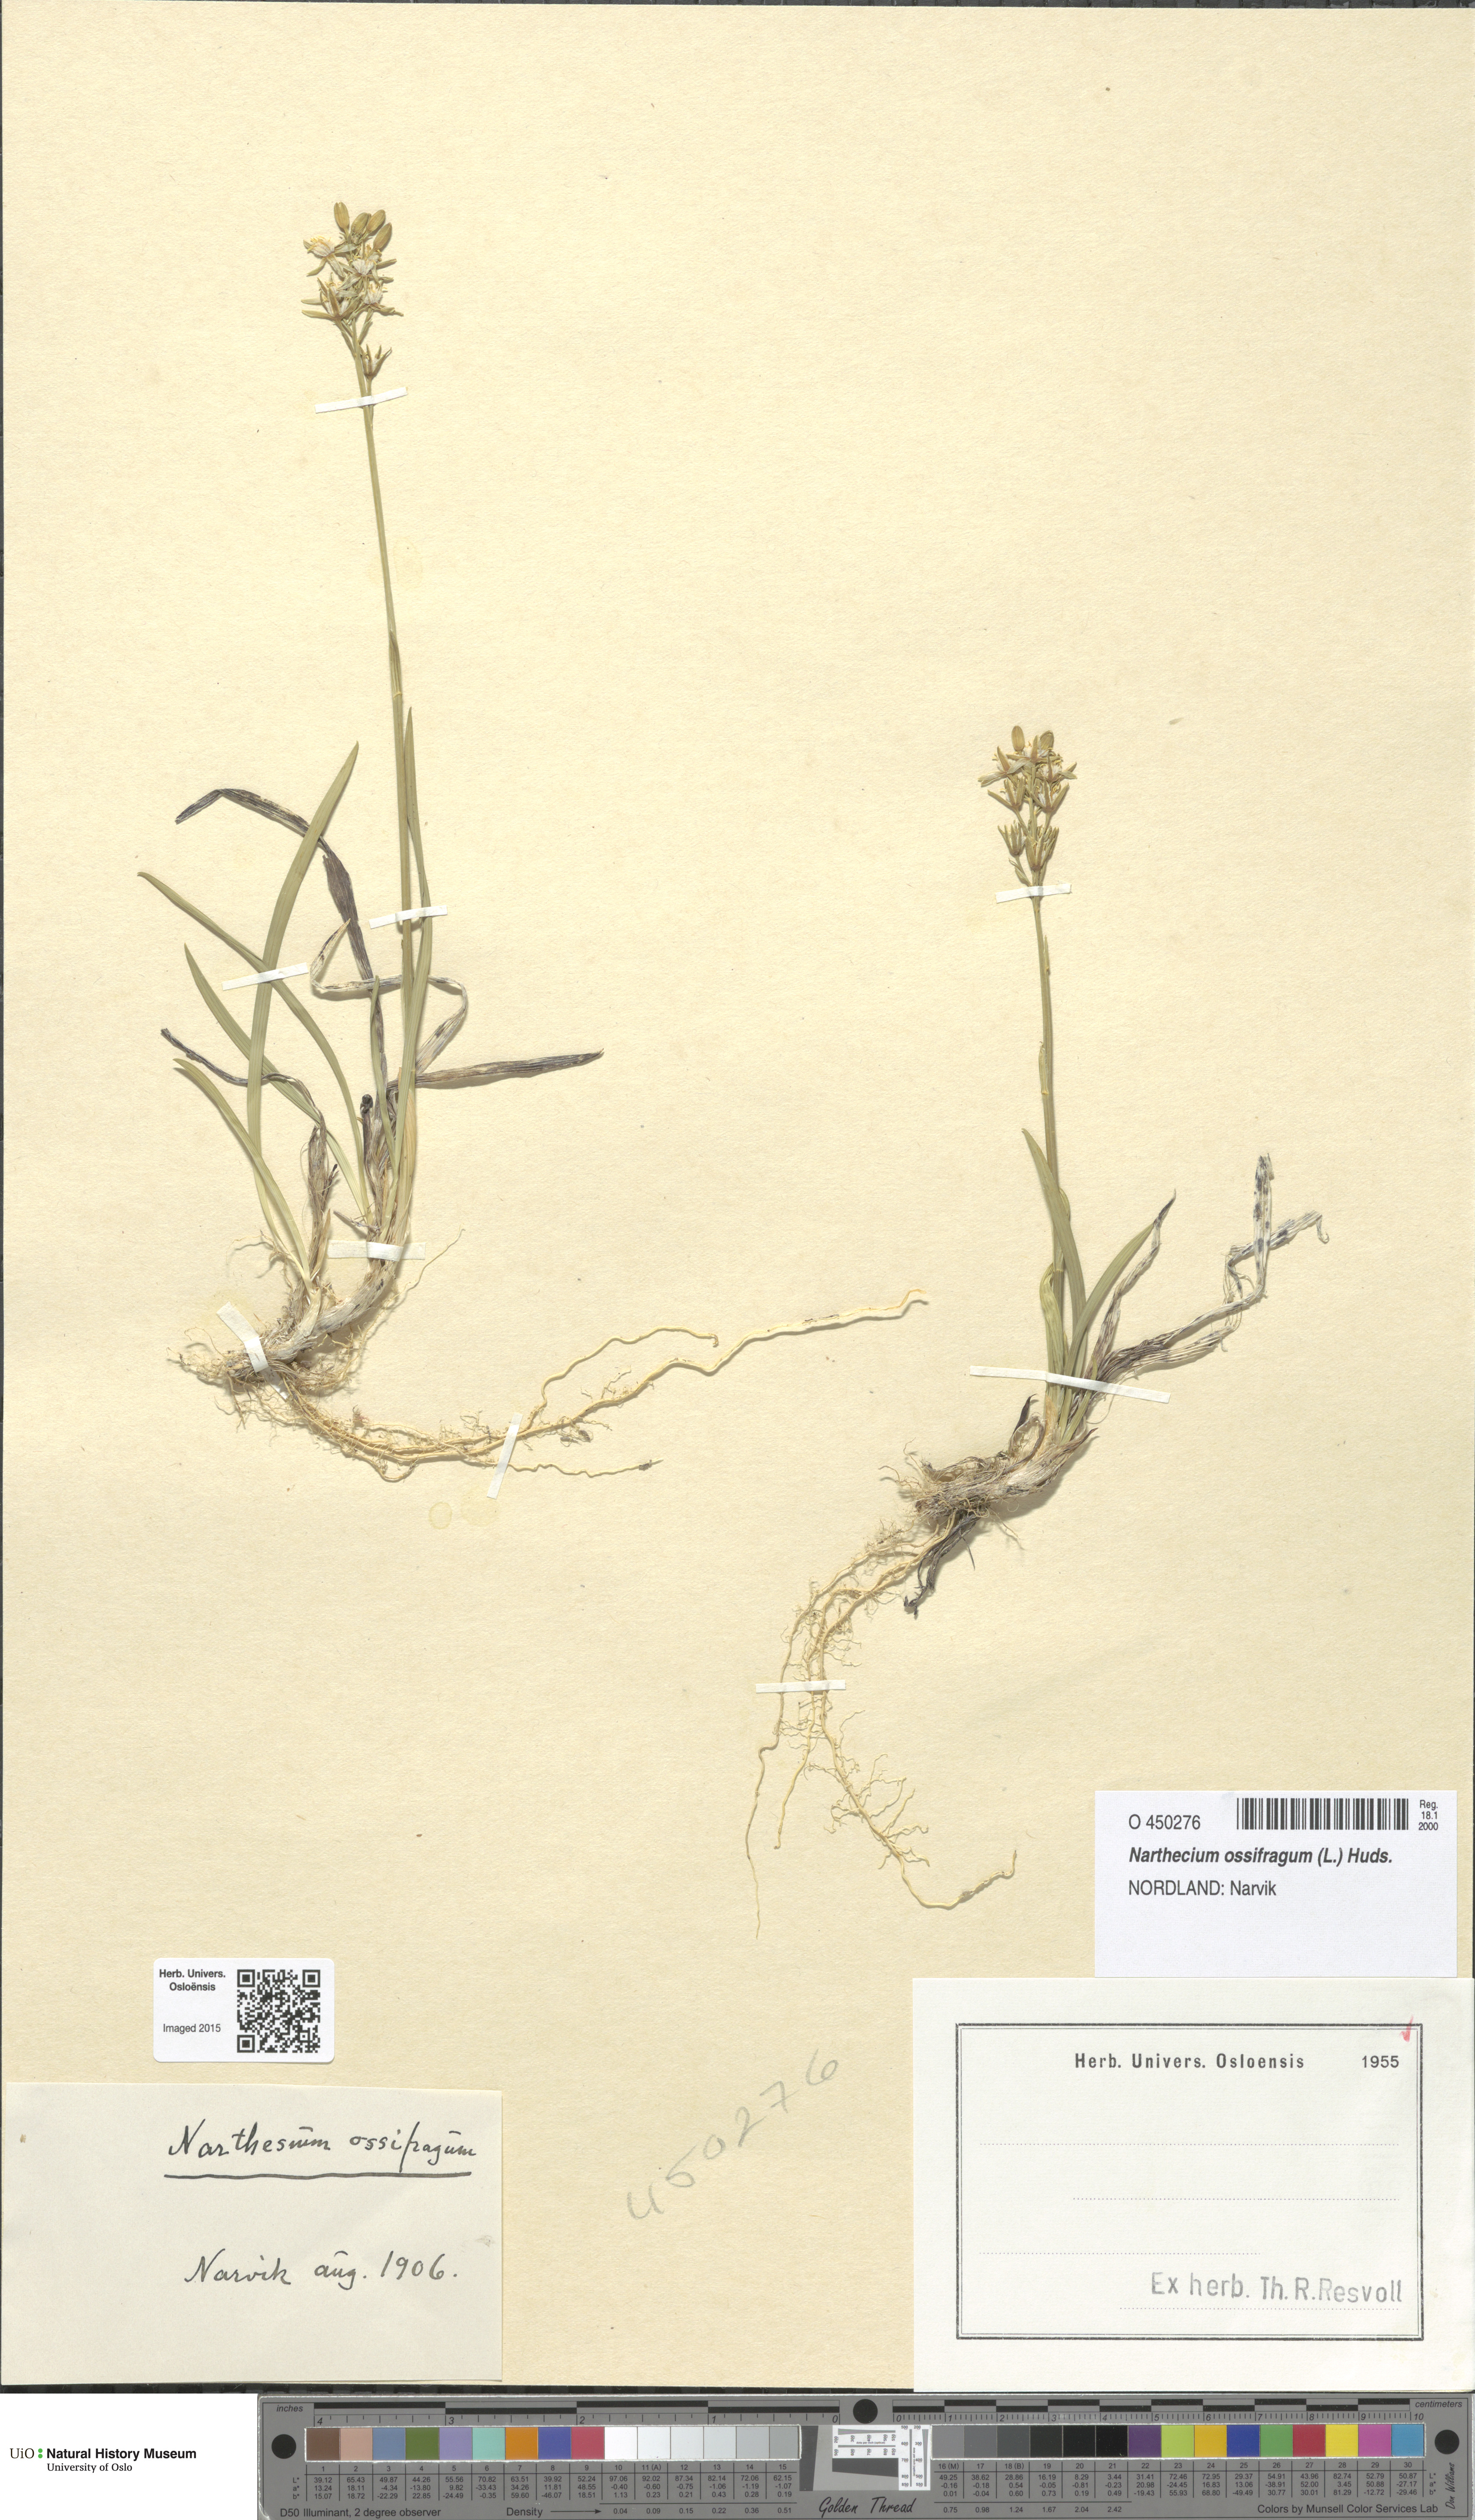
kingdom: Plantae
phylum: Tracheophyta
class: Liliopsida
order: Dioscoreales
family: Nartheciaceae
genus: Narthecium
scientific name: Narthecium ossifragum
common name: Bog asphodel
